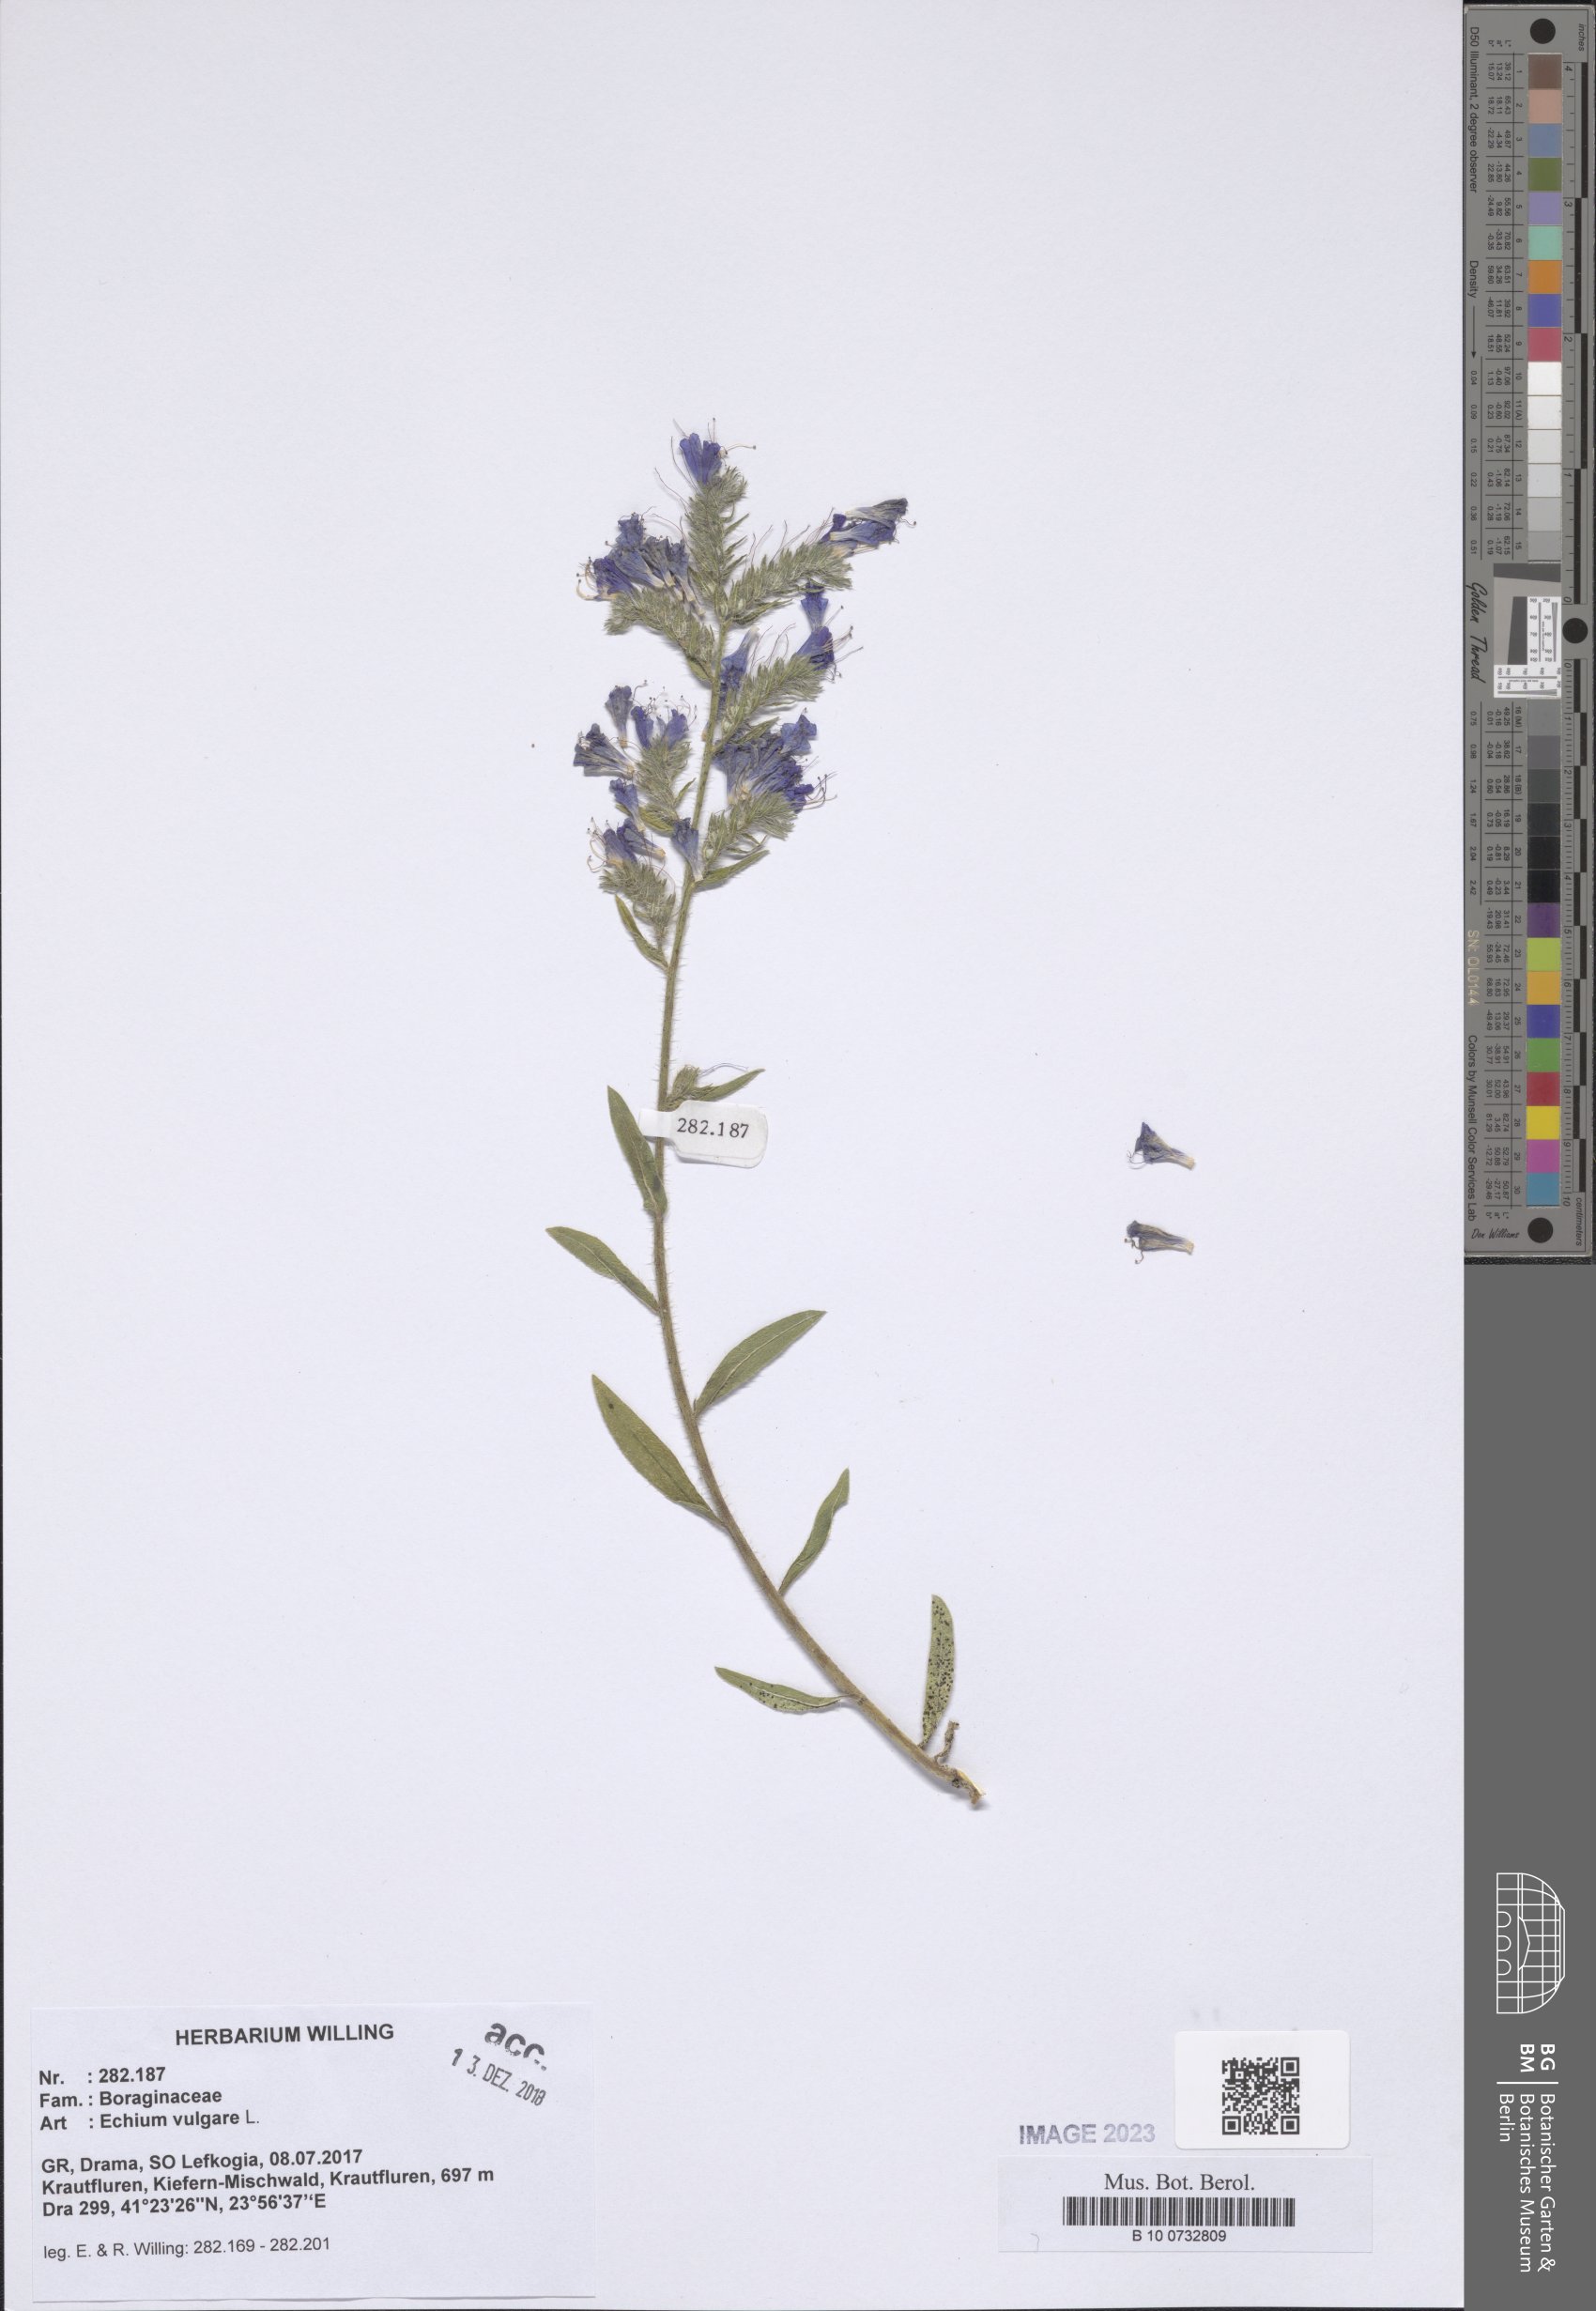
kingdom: Plantae
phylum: Tracheophyta
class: Magnoliopsida
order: Boraginales
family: Boraginaceae
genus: Echium
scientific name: Echium vulgare
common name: Common viper's bugloss
